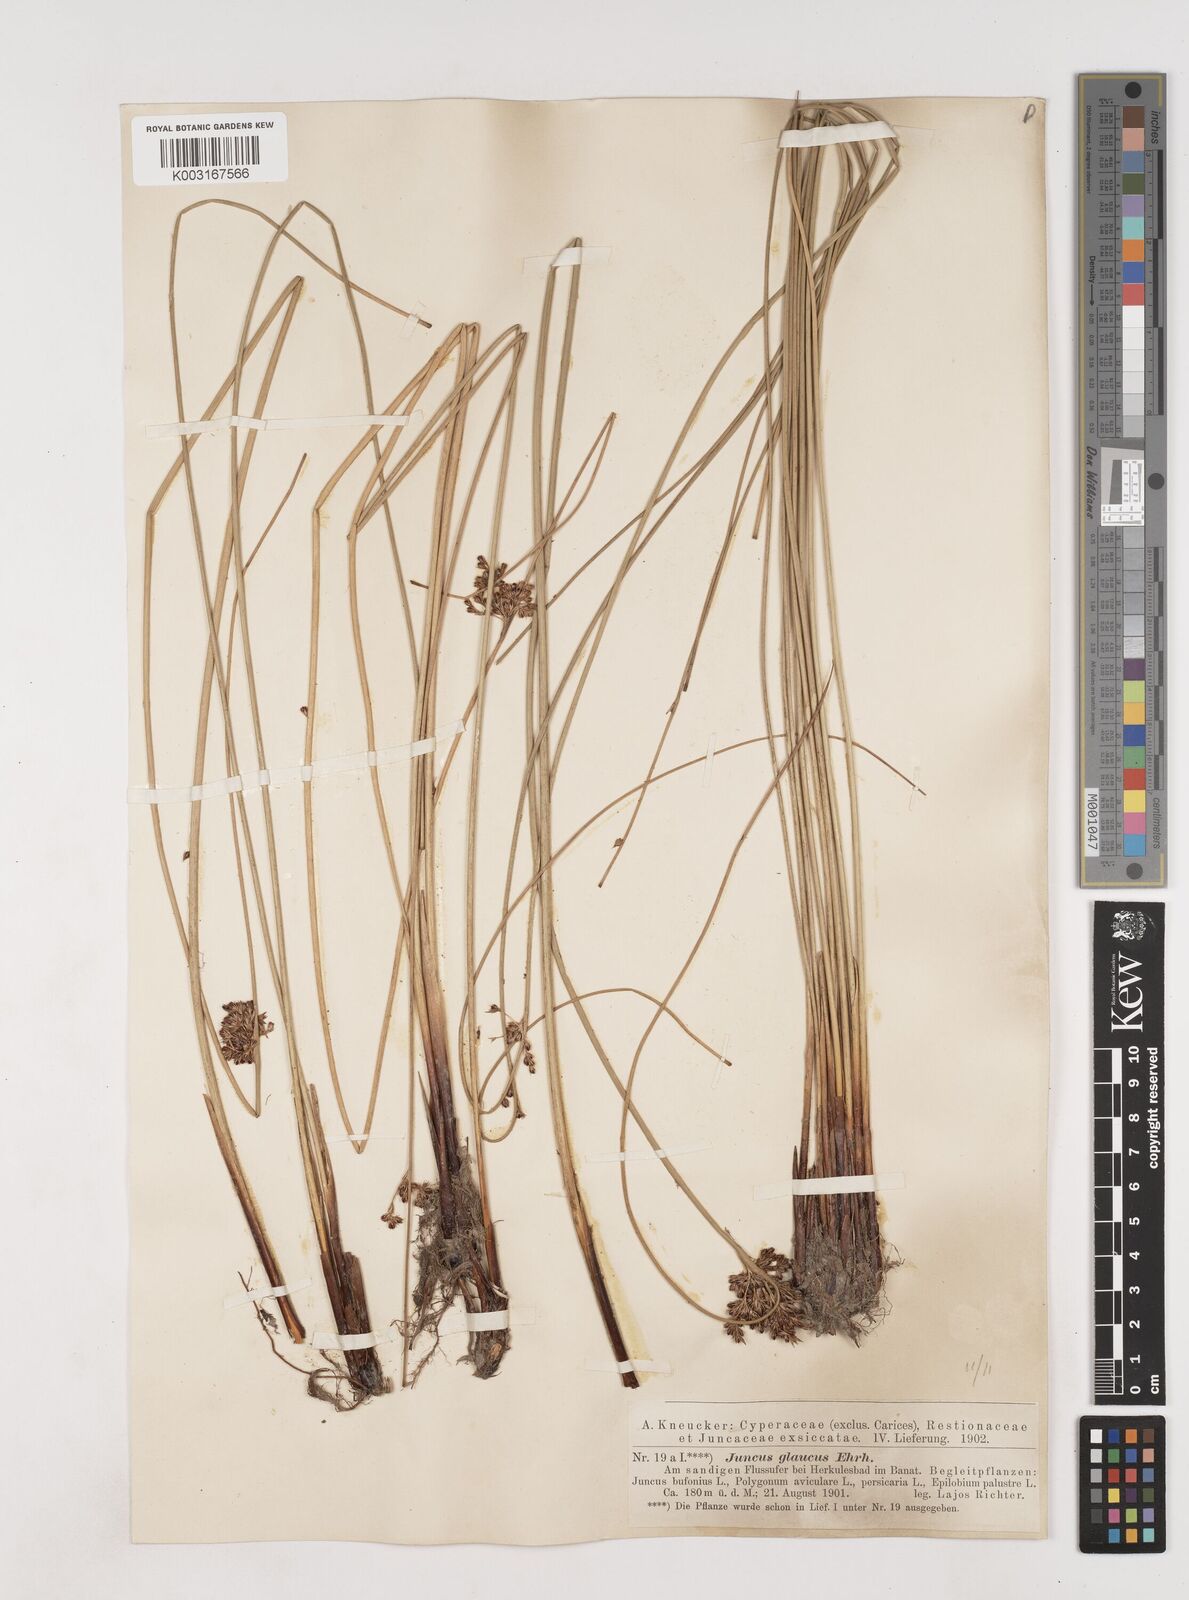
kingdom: Plantae
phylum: Tracheophyta
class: Liliopsida
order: Poales
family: Juncaceae
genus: Juncus
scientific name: Juncus inflexus
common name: Hard rush
